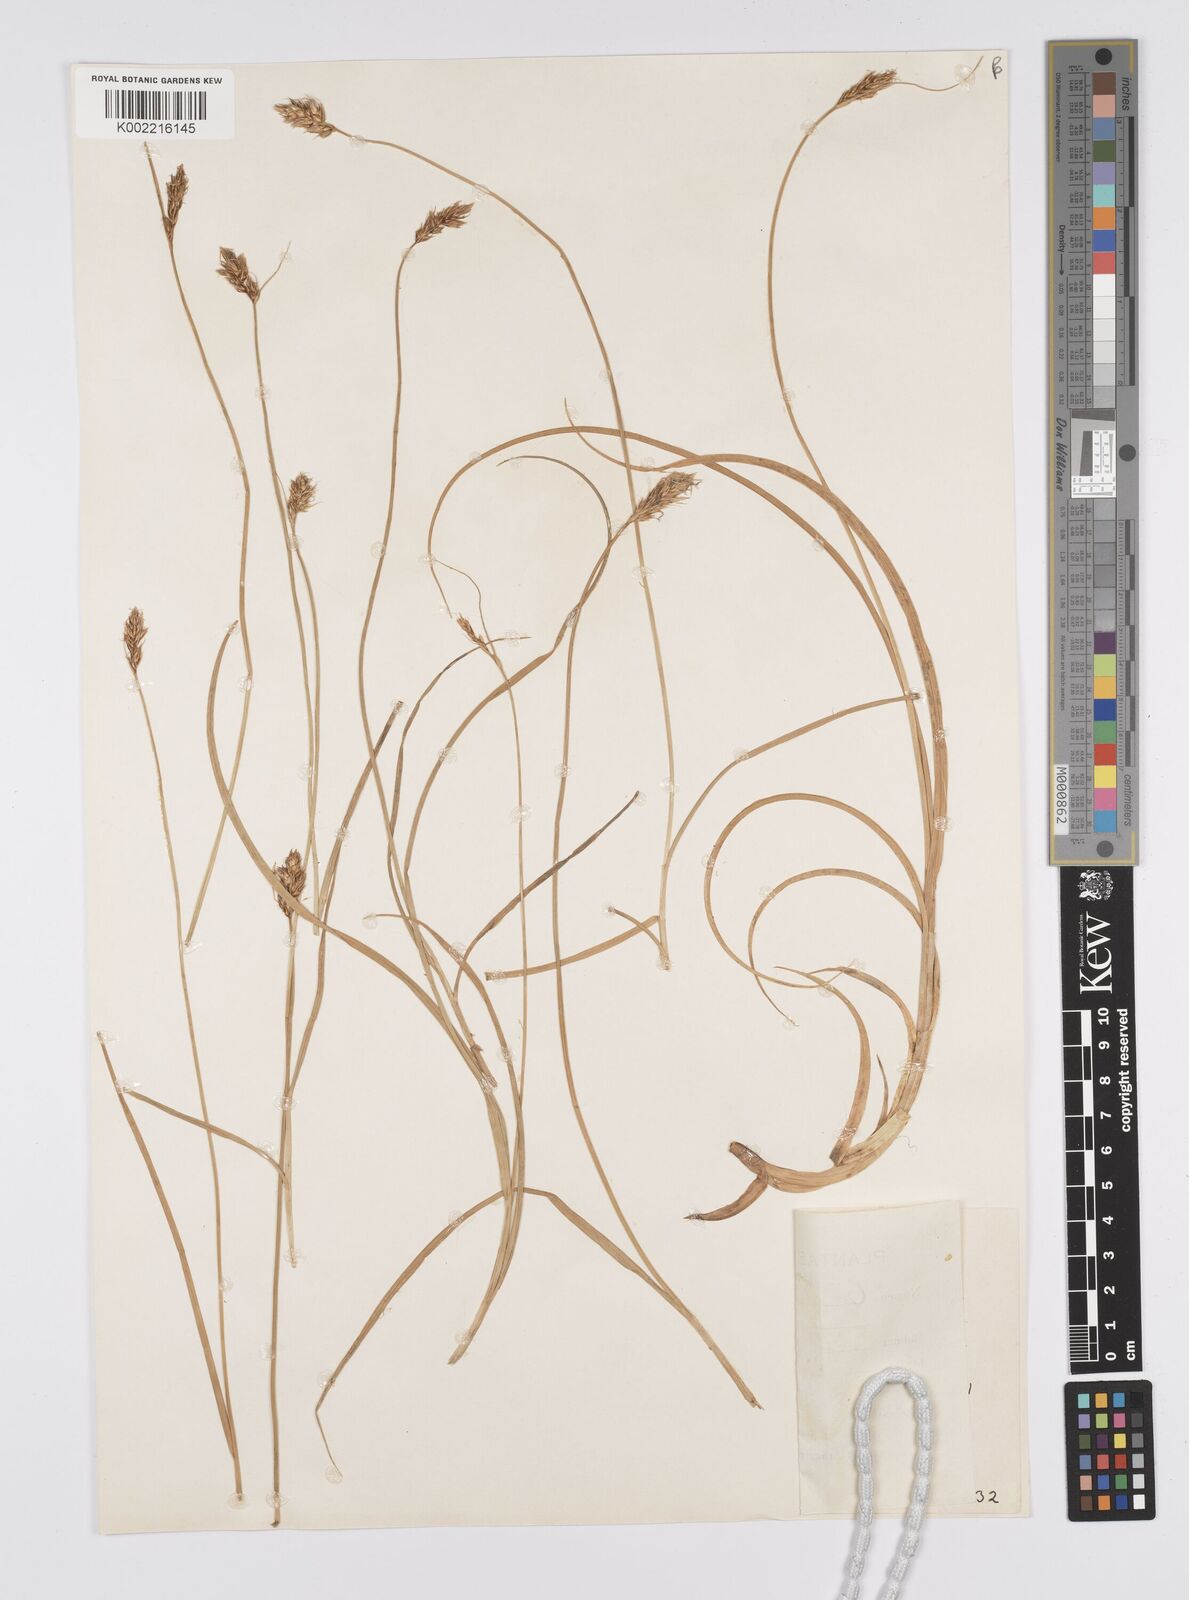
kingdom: Plantae
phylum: Tracheophyta
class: Liliopsida
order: Poales
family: Cyperaceae
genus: Carex
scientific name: Carex divisa
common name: Divided sedge
